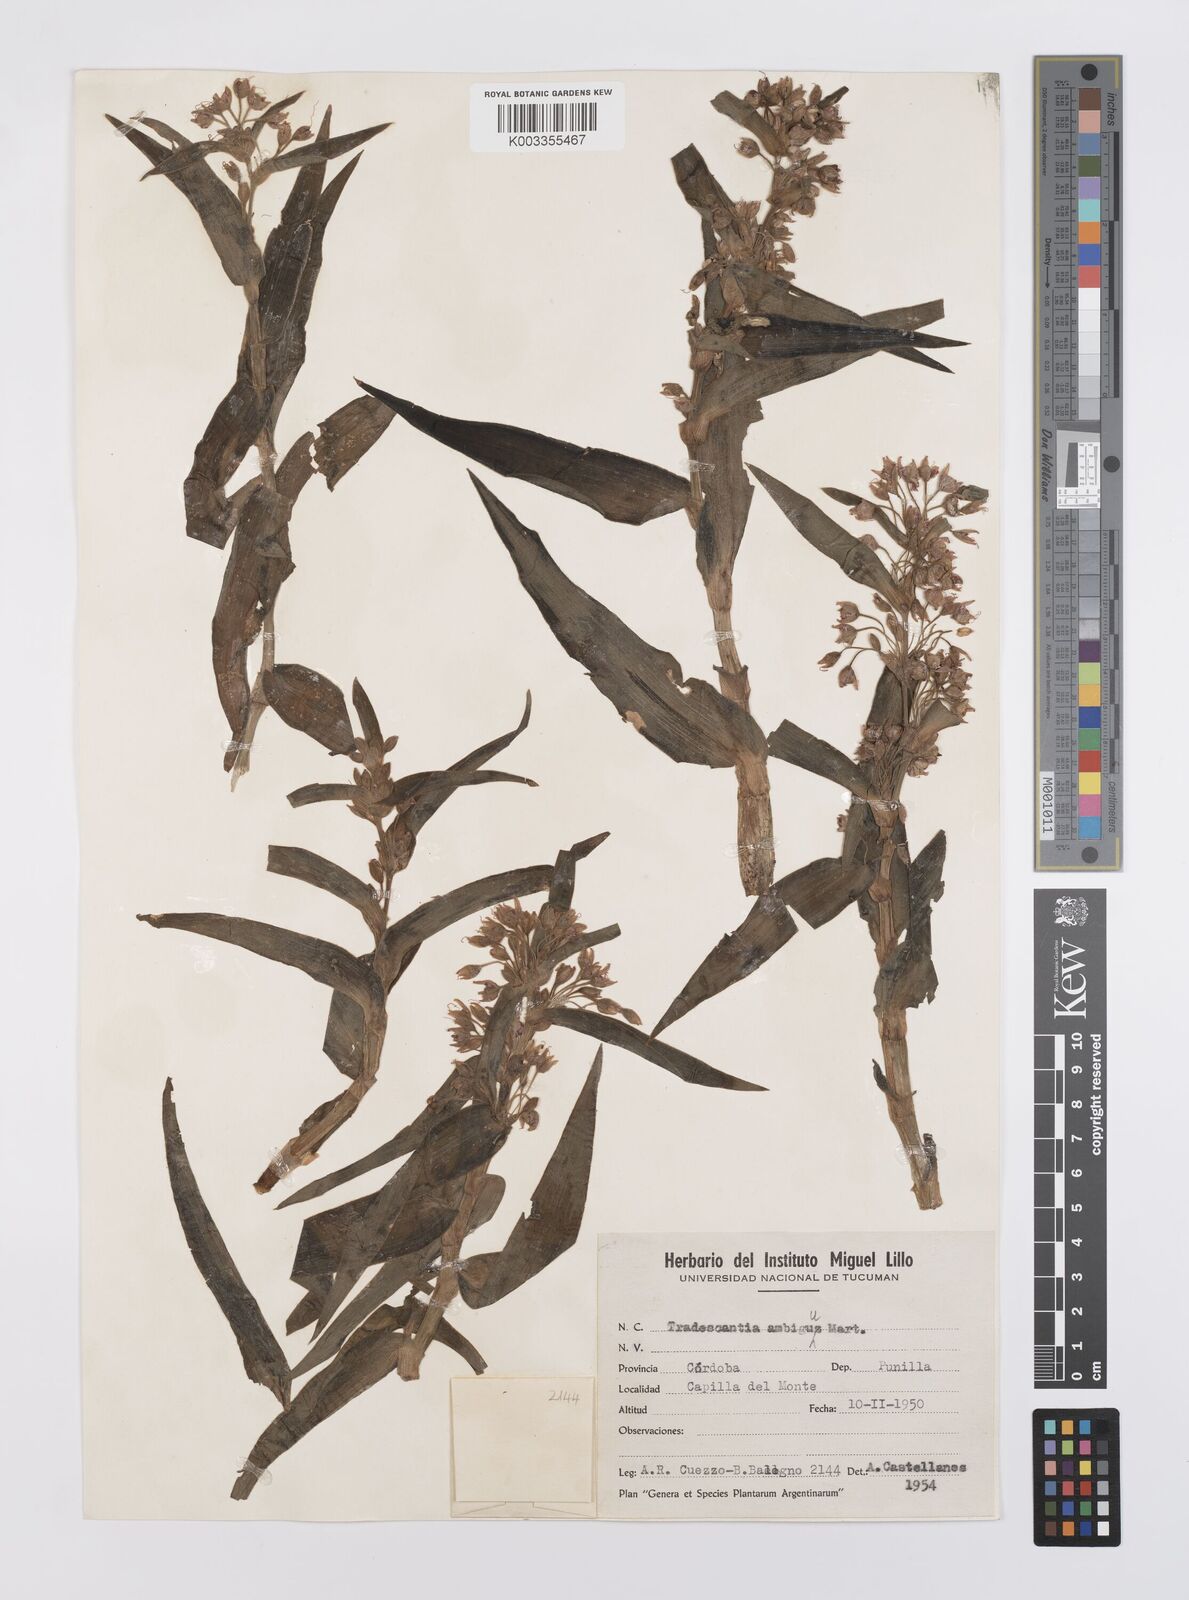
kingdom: Plantae
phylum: Tracheophyta
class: Liliopsida
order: Commelinales
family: Commelinaceae
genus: Tradescantia
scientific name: Tradescantia boliviana
